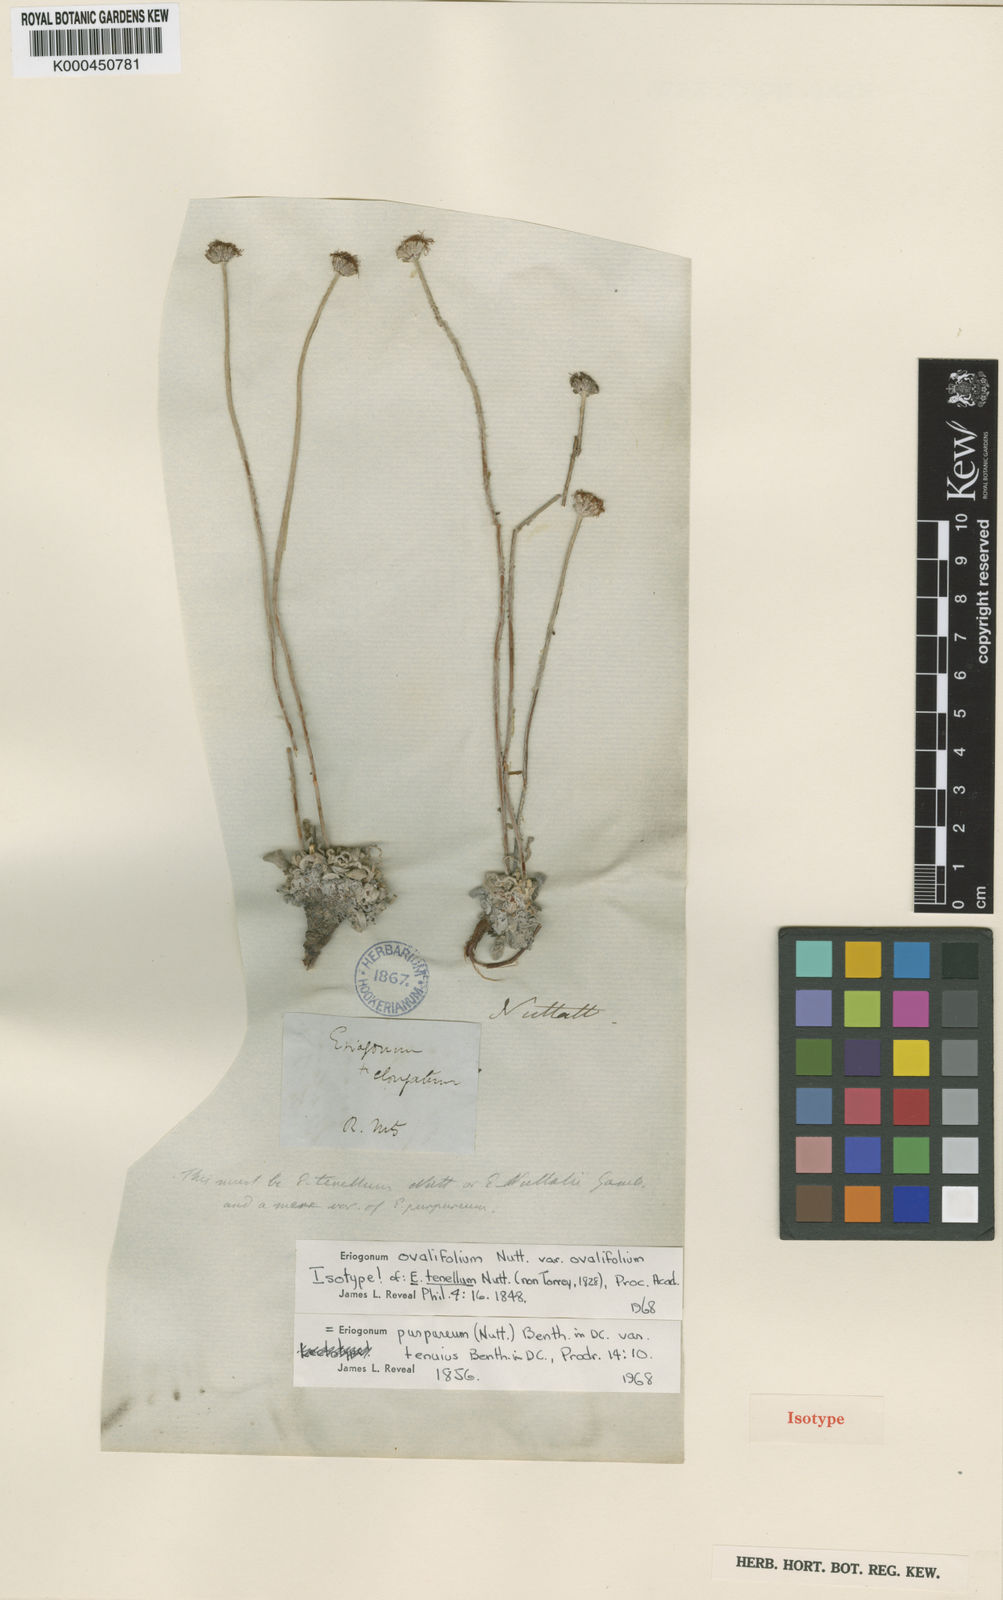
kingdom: Plantae
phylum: Tracheophyta
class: Magnoliopsida
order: Caryophyllales
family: Polygonaceae
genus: Eriogonum
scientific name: Eriogonum ovalifolium
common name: Cushion buckwheat
